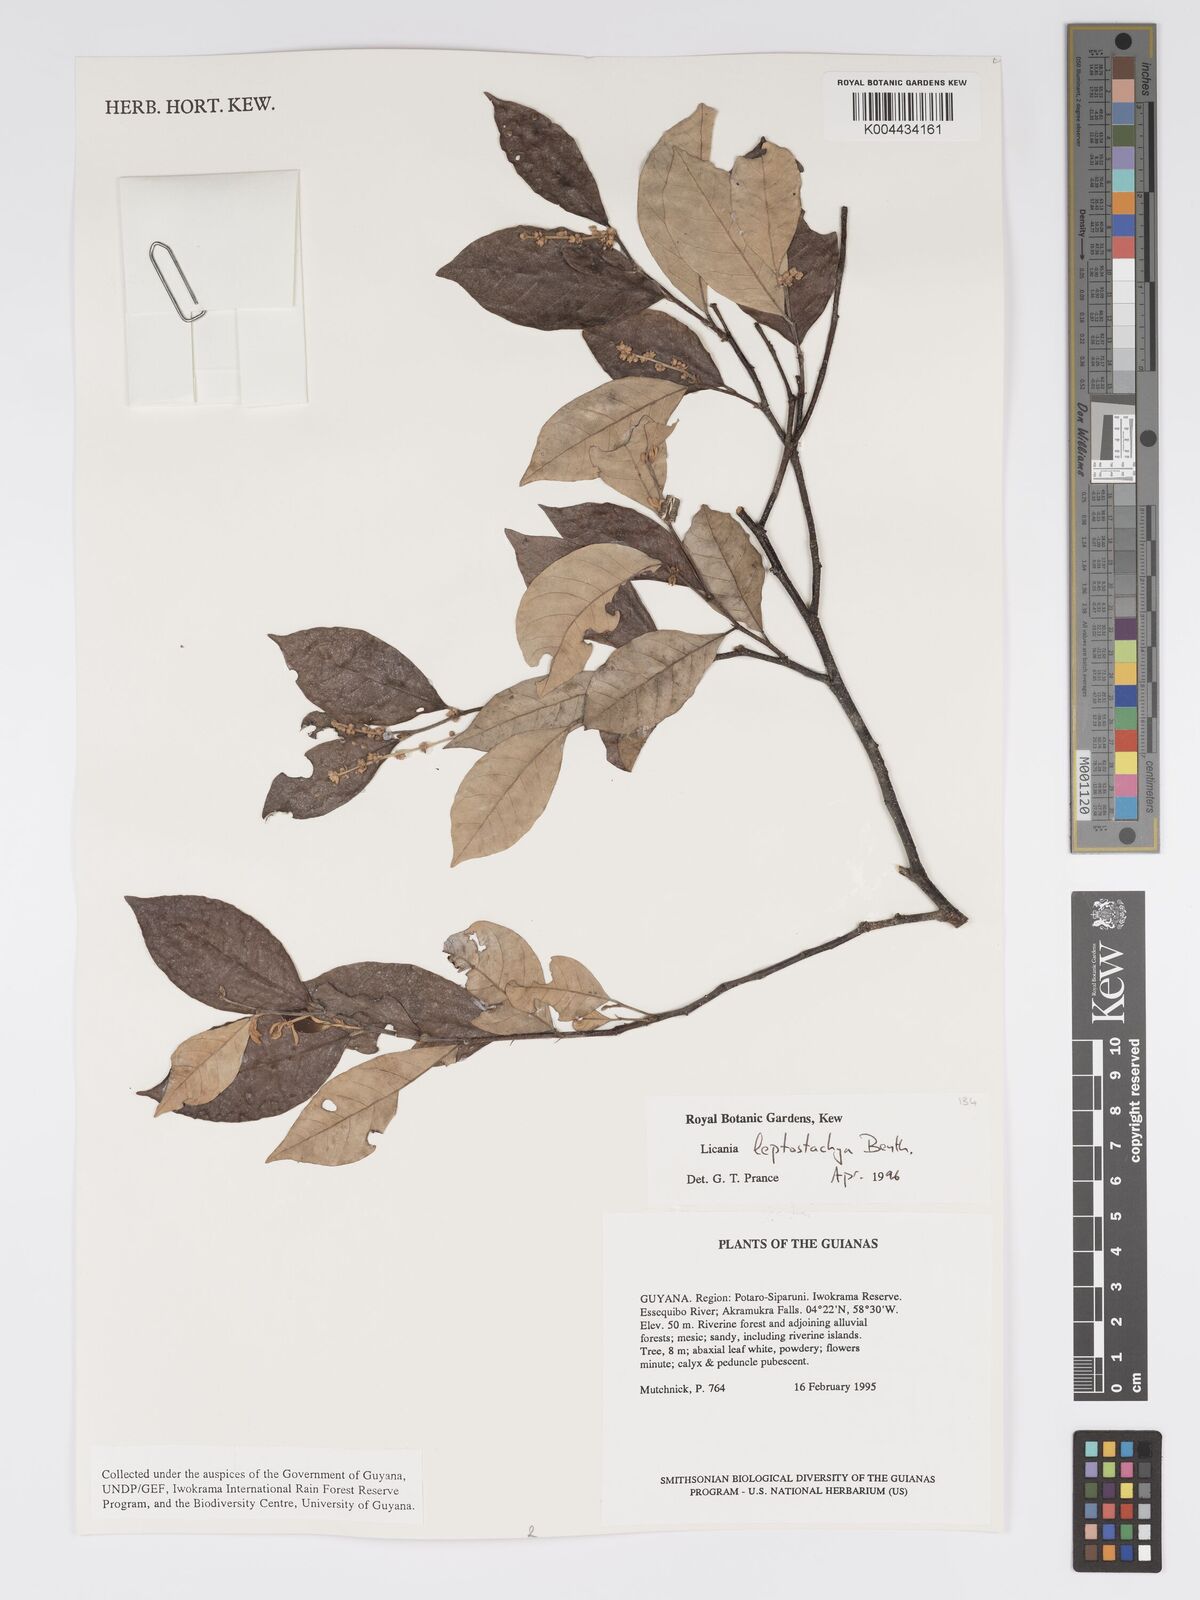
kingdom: Plantae
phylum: Tracheophyta
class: Magnoliopsida
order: Malpighiales
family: Chrysobalanaceae
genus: Licania
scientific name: Licania leptostachya
